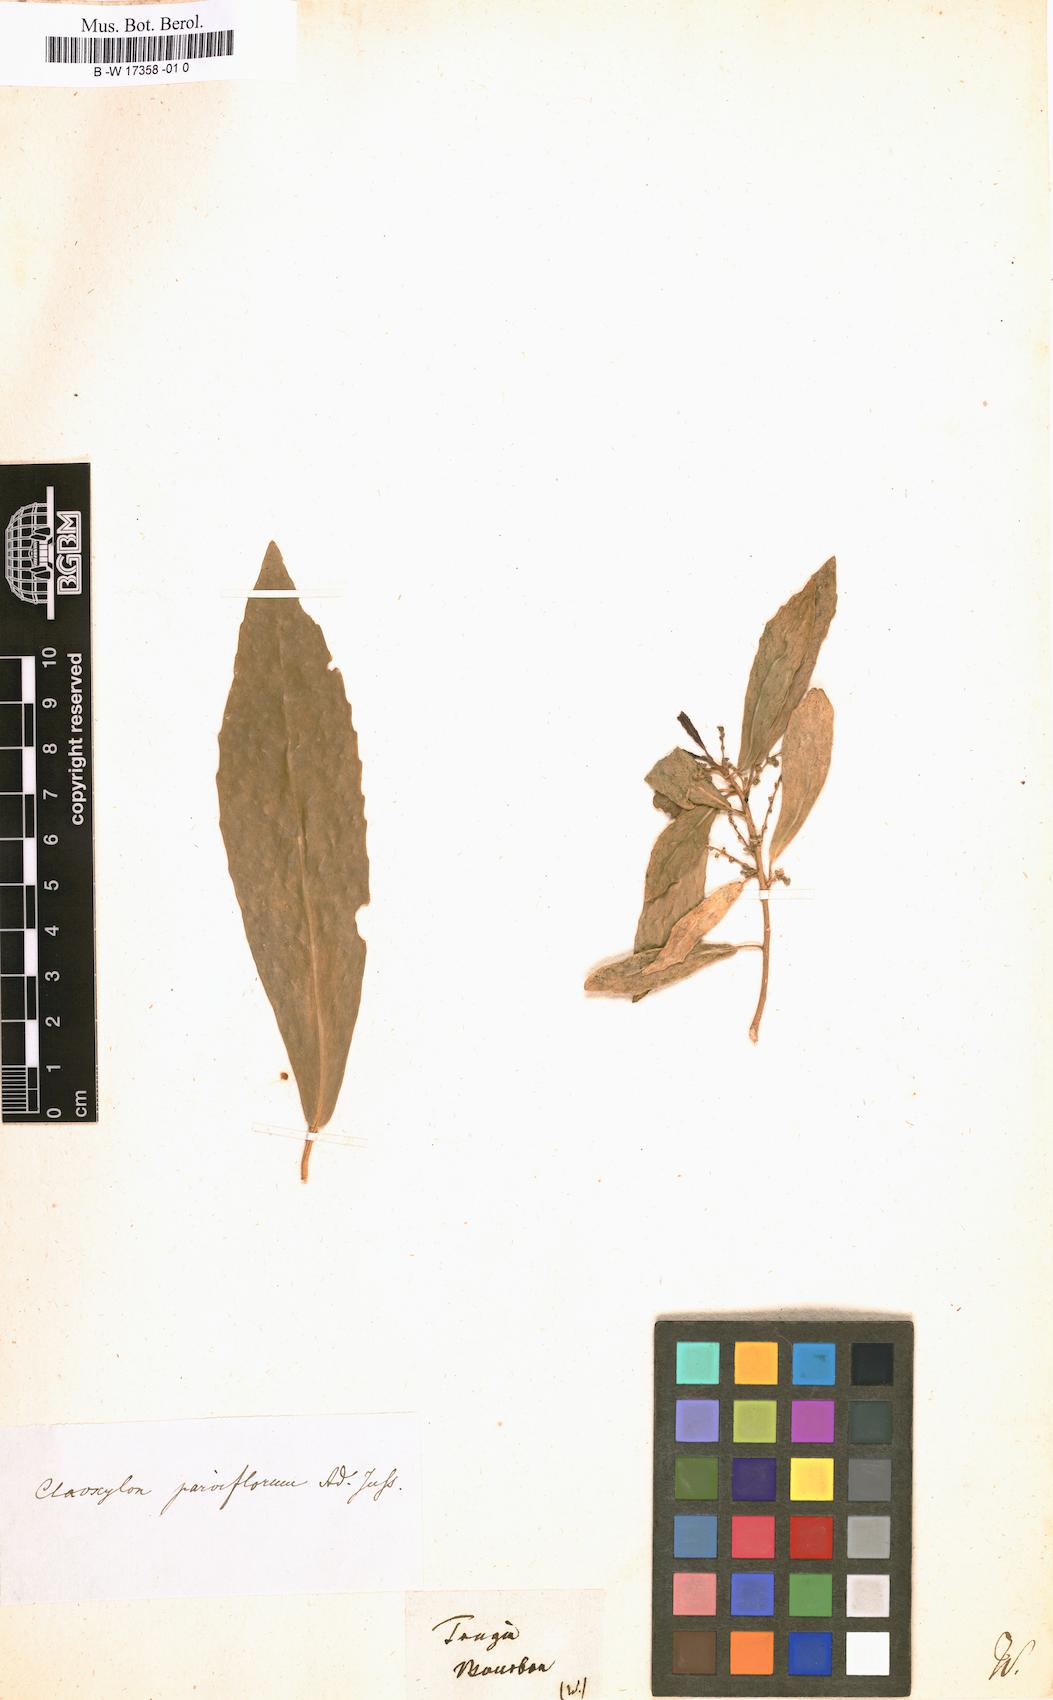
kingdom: Plantae
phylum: Tracheophyta
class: Magnoliopsida
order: Malpighiales
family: Euphorbiaceae
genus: Tragia
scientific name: Tragia
